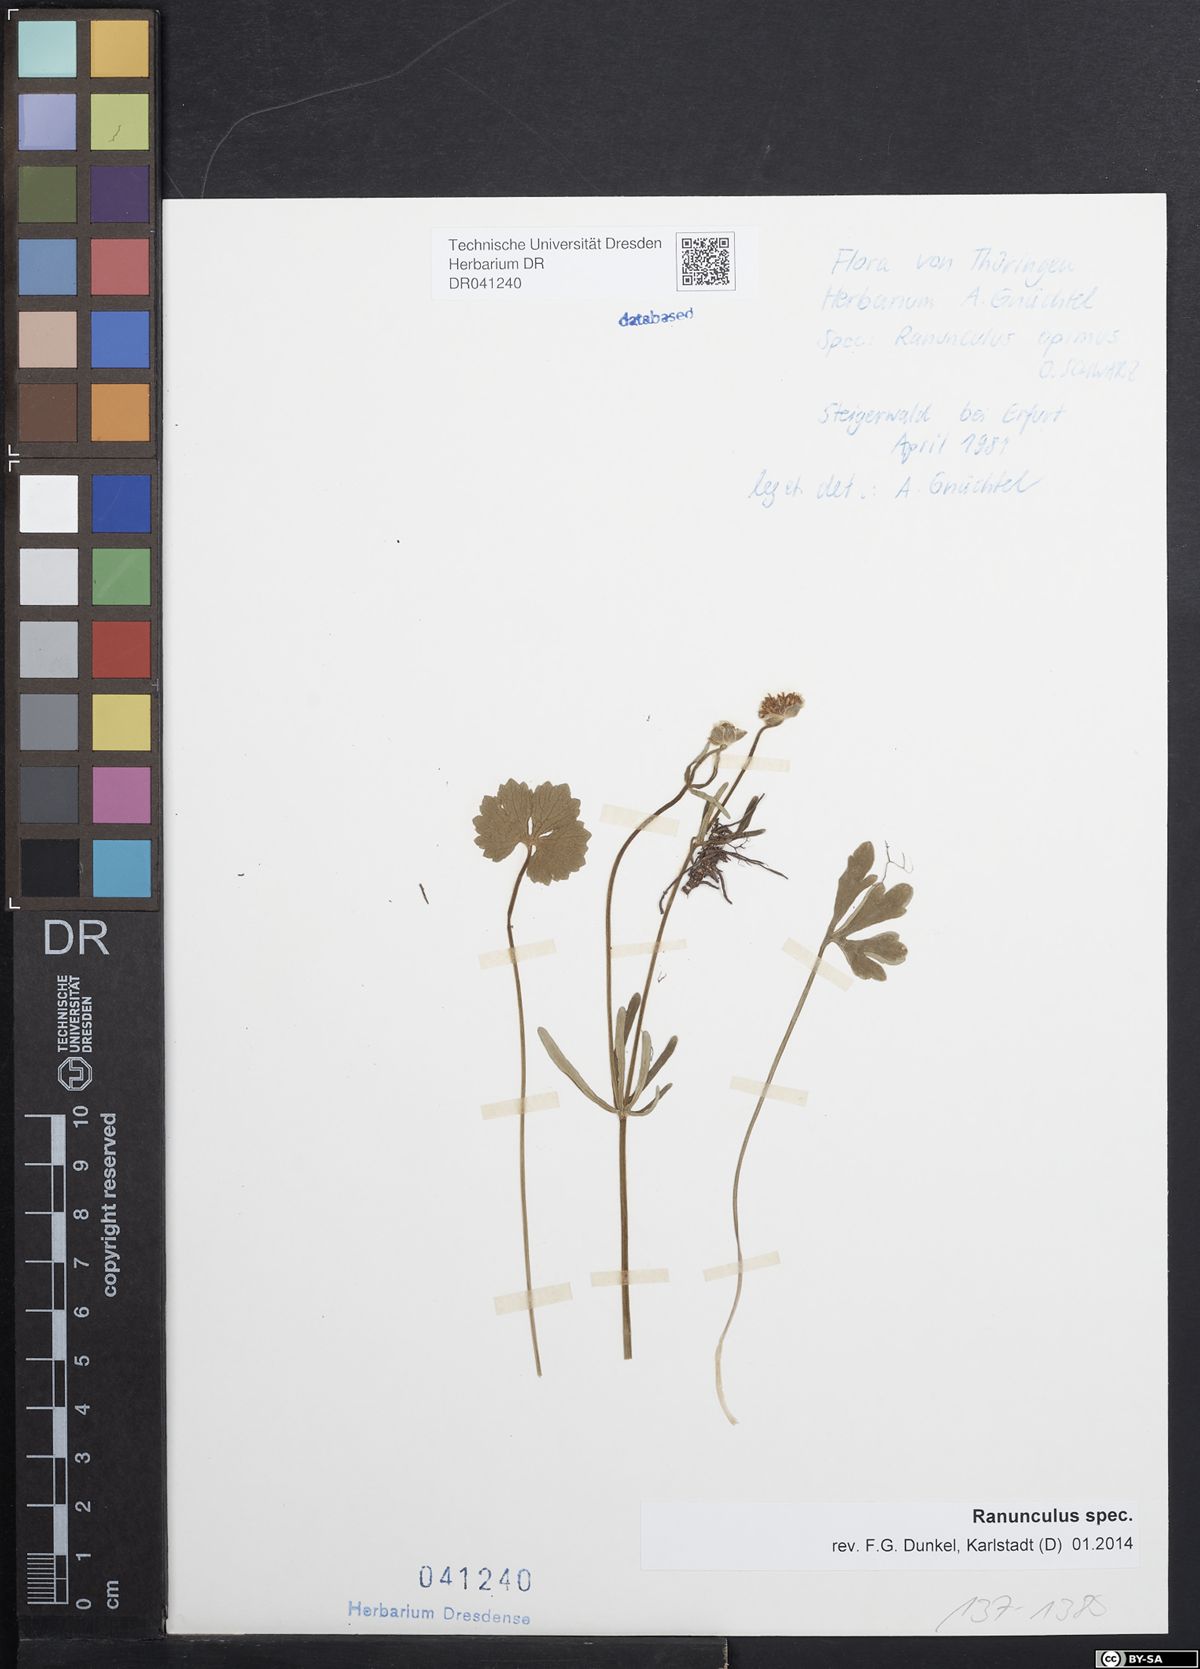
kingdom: Plantae
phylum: Tracheophyta
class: Magnoliopsida
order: Ranunculales
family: Ranunculaceae
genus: Ranunculus
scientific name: Ranunculus auricomus
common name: Goldilocks buttercup
